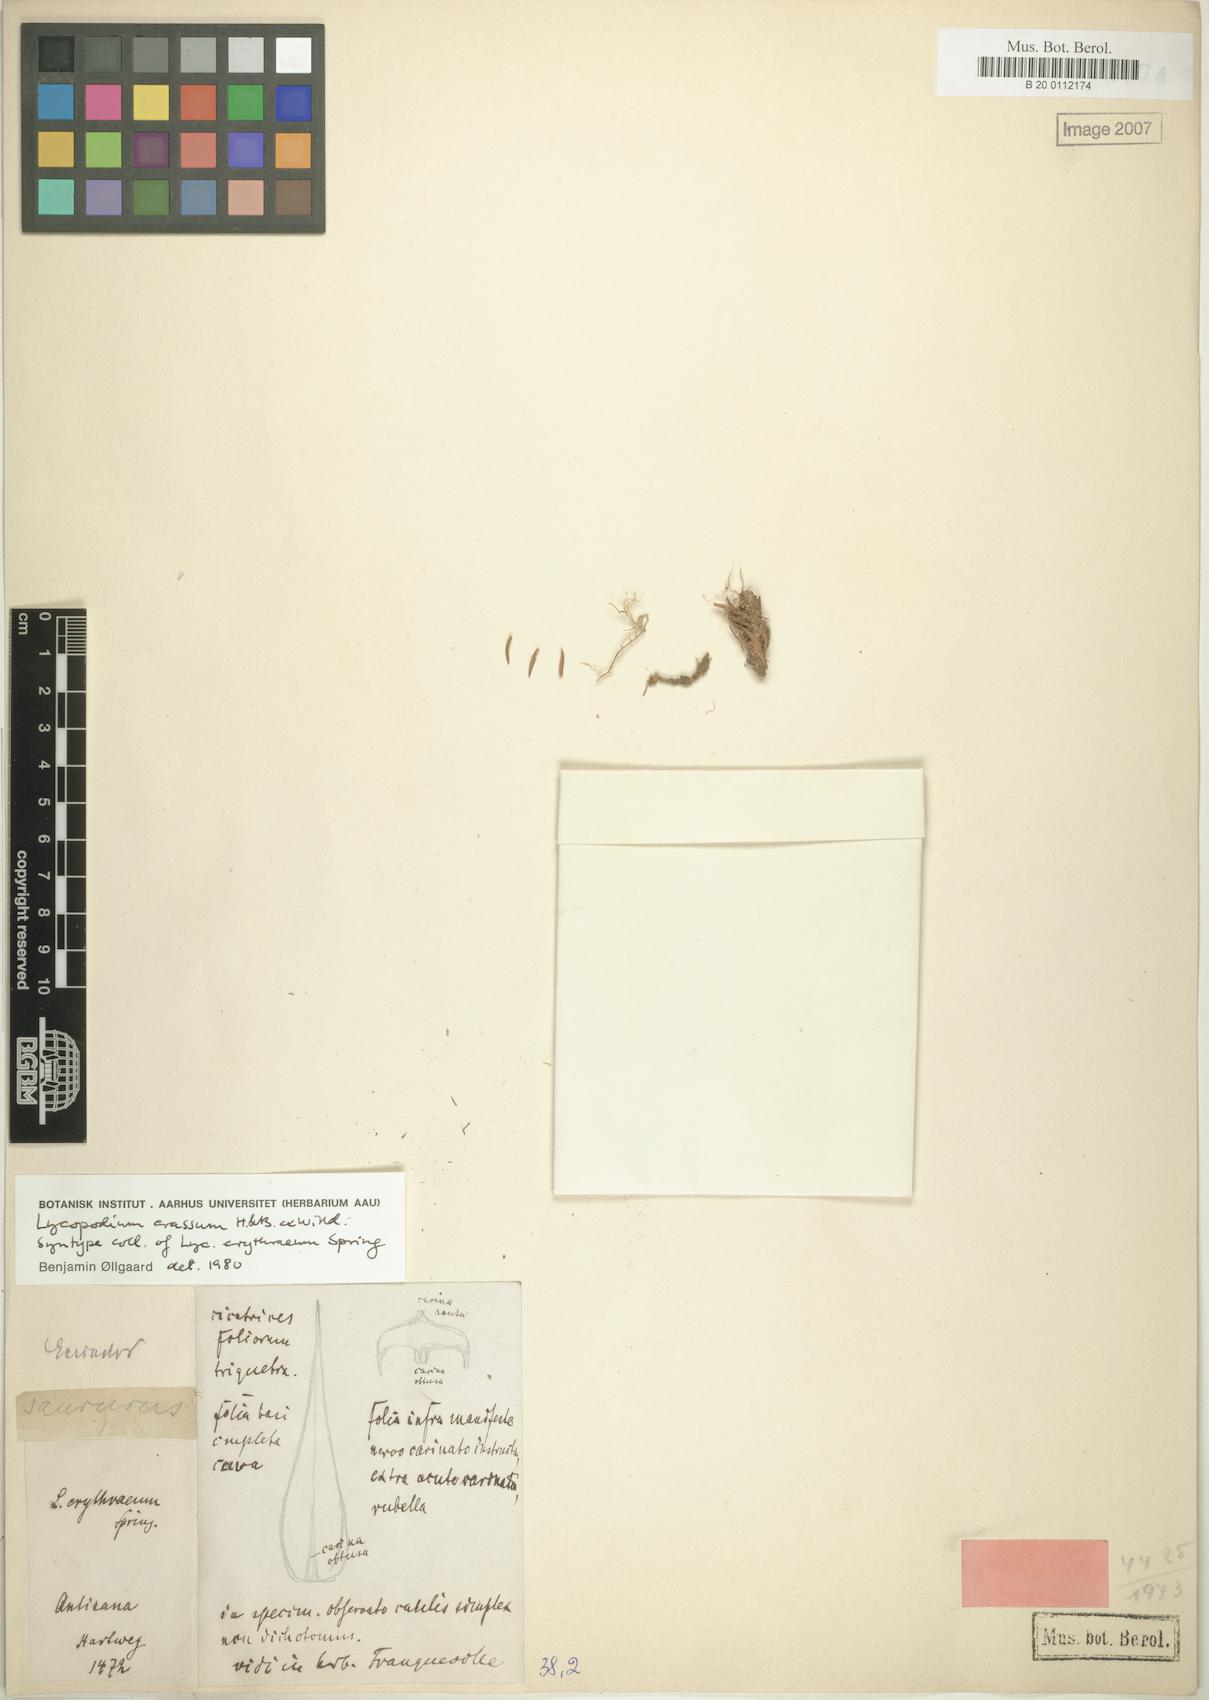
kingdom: Plantae
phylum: Tracheophyta
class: Lycopodiopsida
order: Lycopodiales
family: Lycopodiaceae
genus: Phlegmariurus
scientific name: Phlegmariurus crassus
